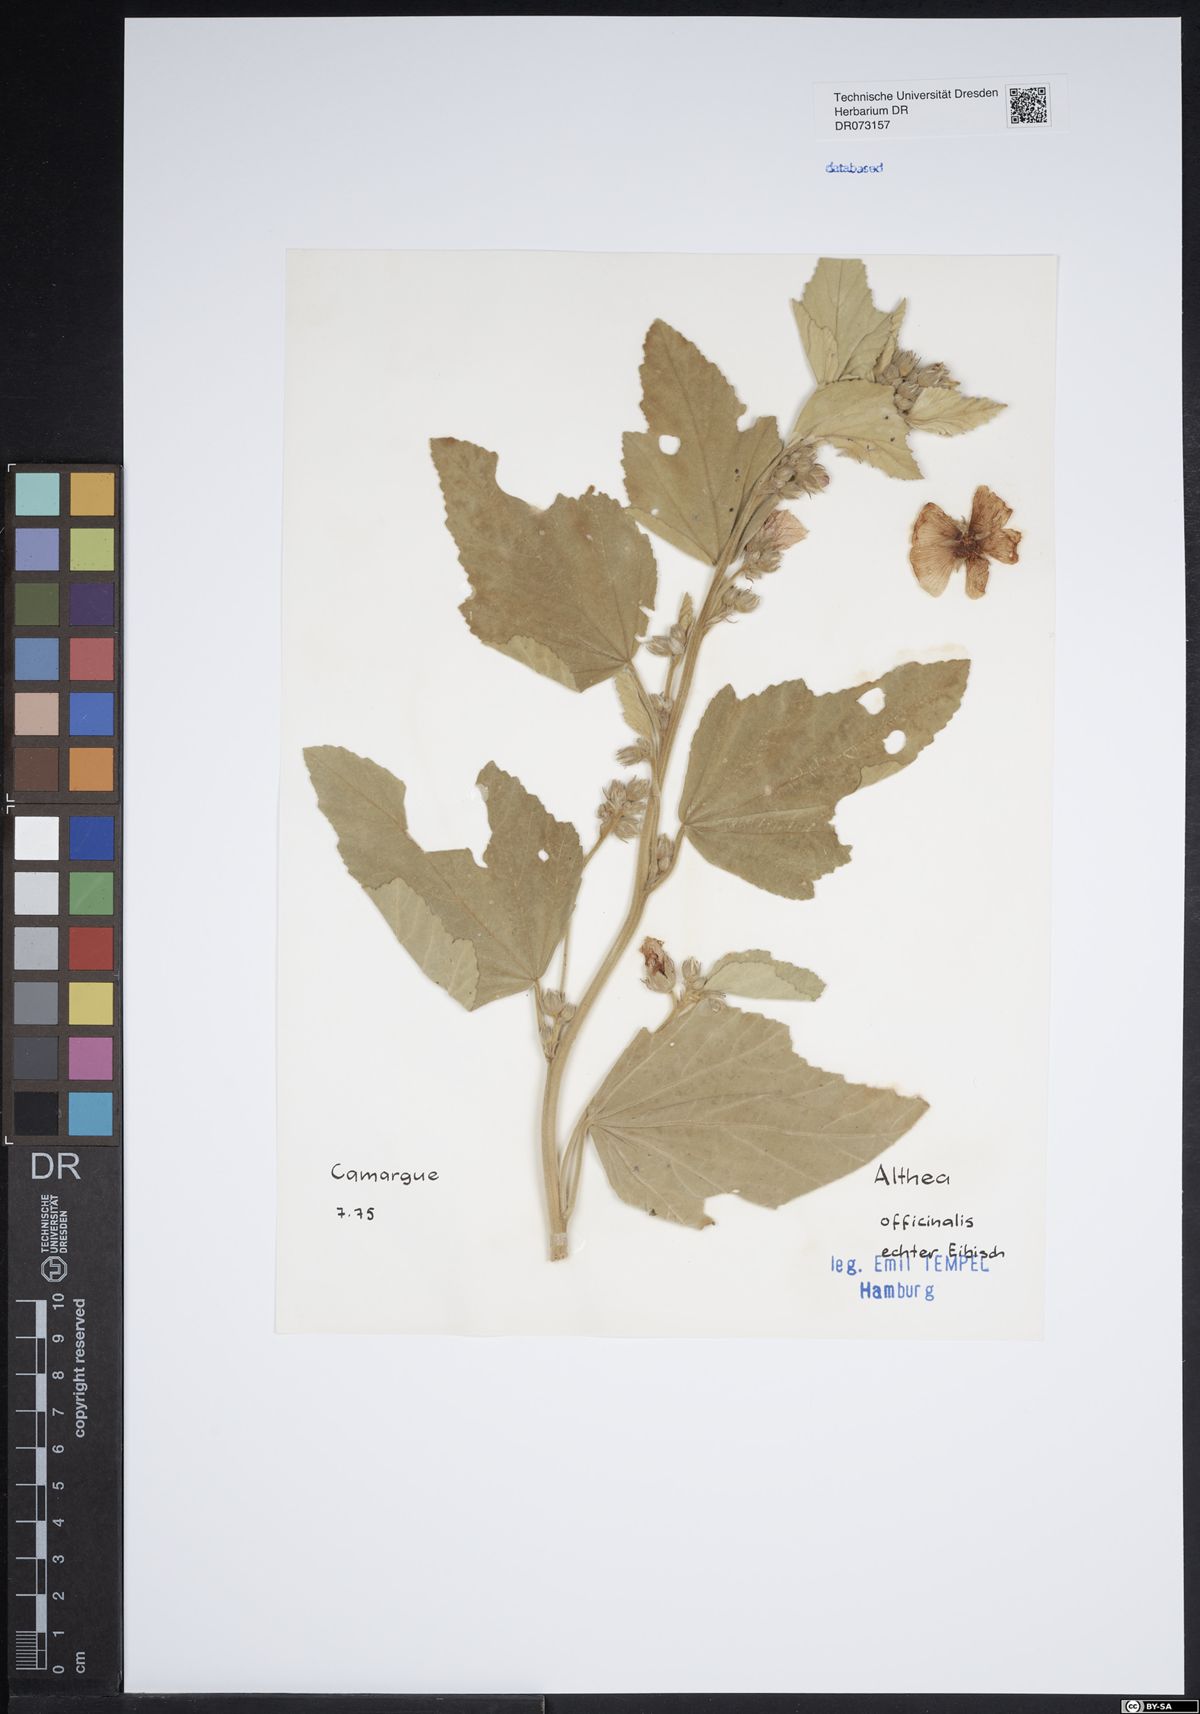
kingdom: Plantae
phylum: Tracheophyta
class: Magnoliopsida
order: Malvales
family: Malvaceae
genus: Althaea
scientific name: Althaea officinalis
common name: Marsh-mallow
